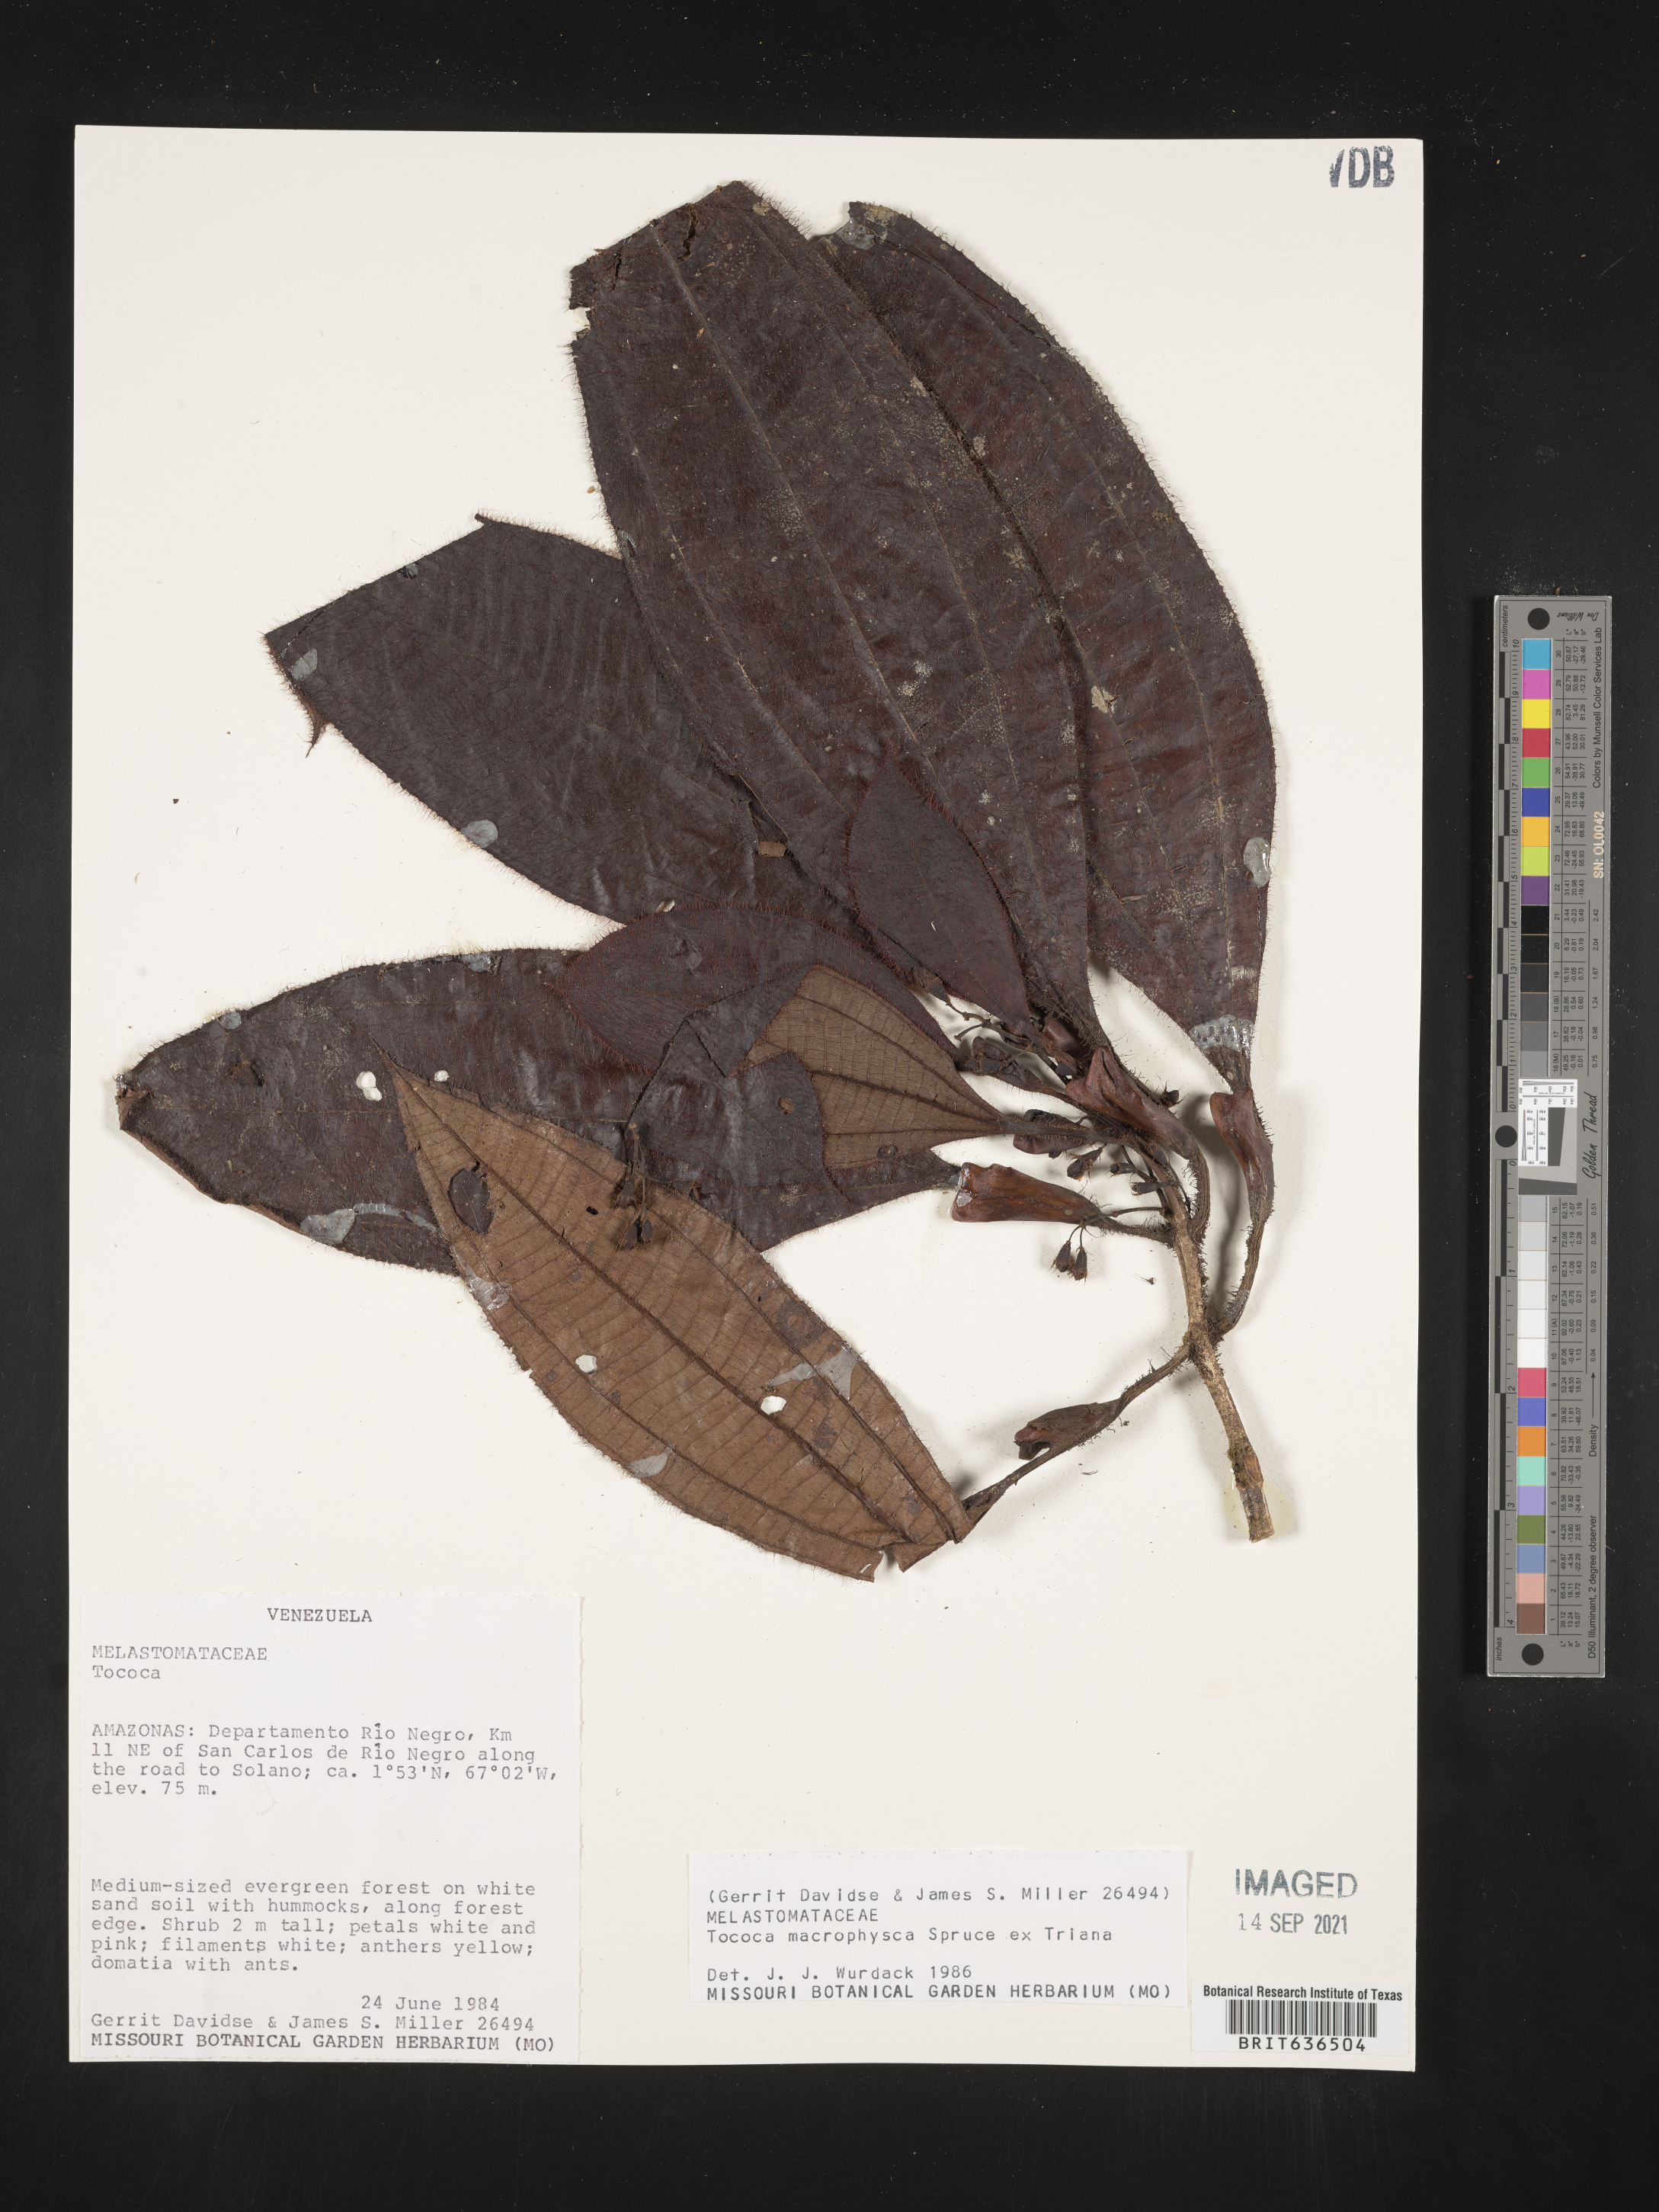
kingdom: Plantae
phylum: Tracheophyta
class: Magnoliopsida
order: Myrtales
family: Melastomataceae
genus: Tibouchina
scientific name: Tibouchina
